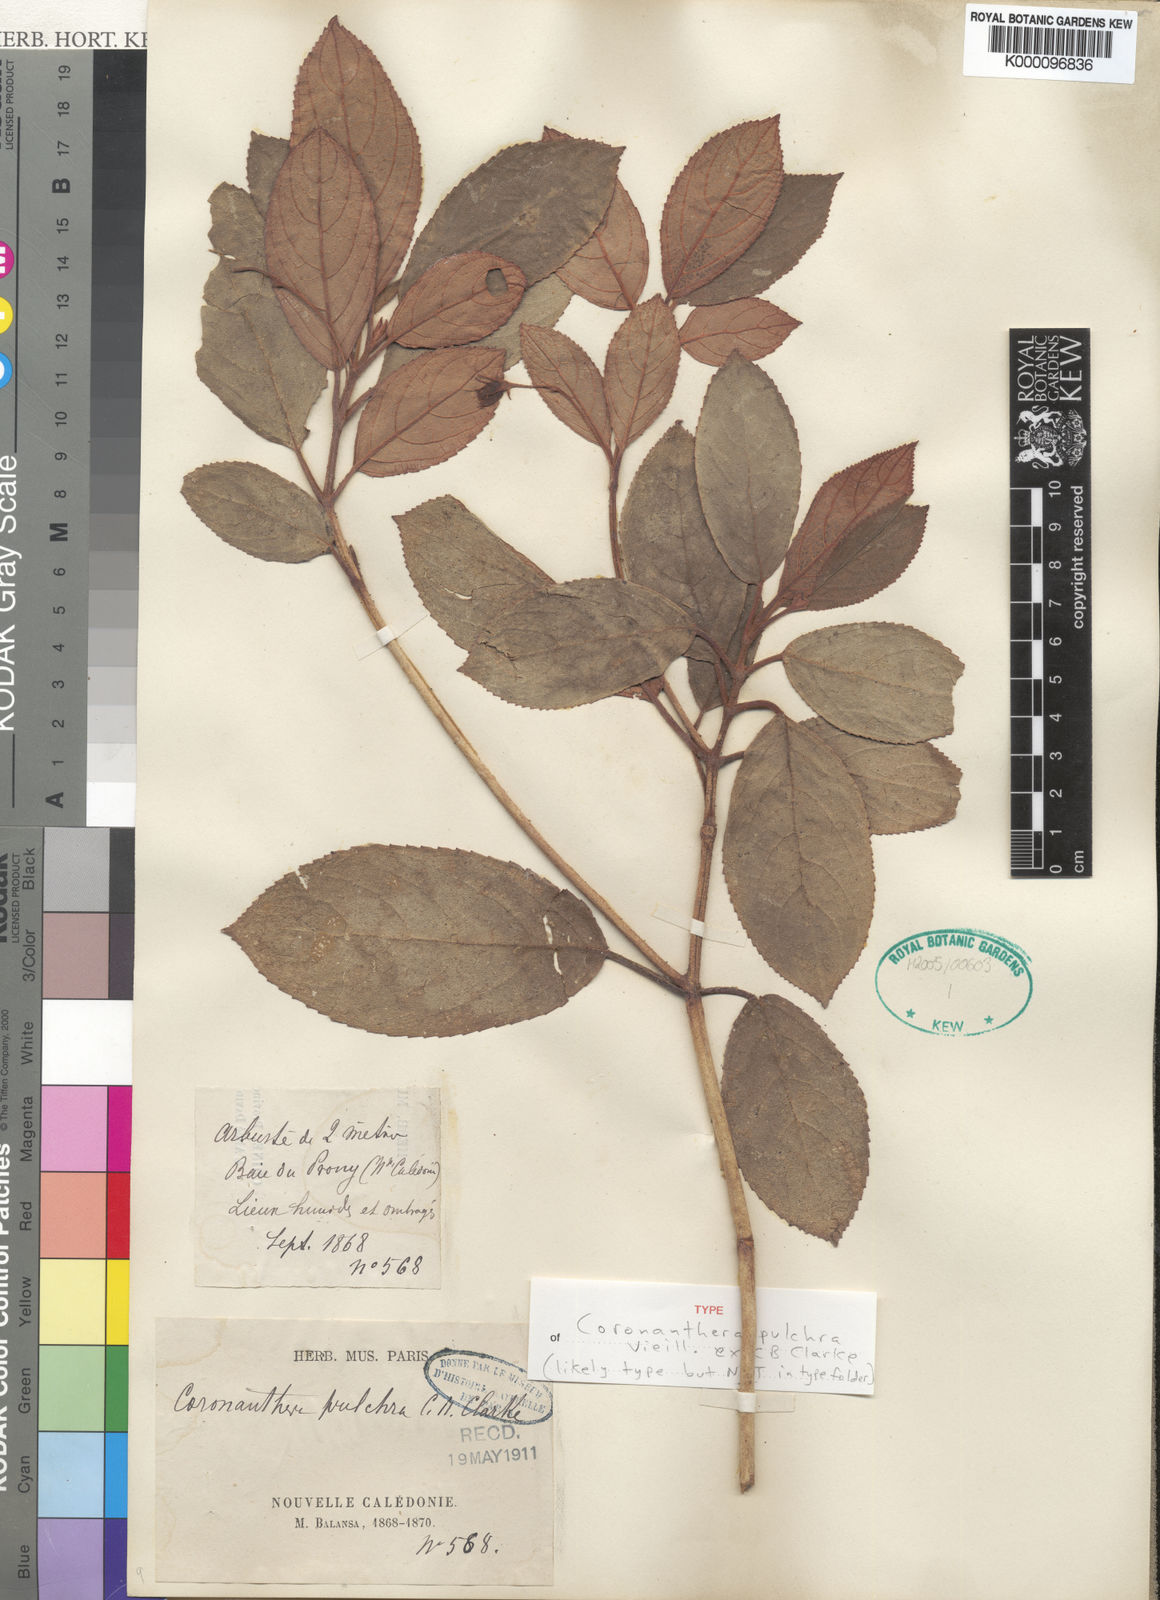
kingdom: Plantae
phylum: Tracheophyta
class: Magnoliopsida
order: Lamiales
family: Gesneriaceae
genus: Coronanthera
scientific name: Coronanthera pulchra
